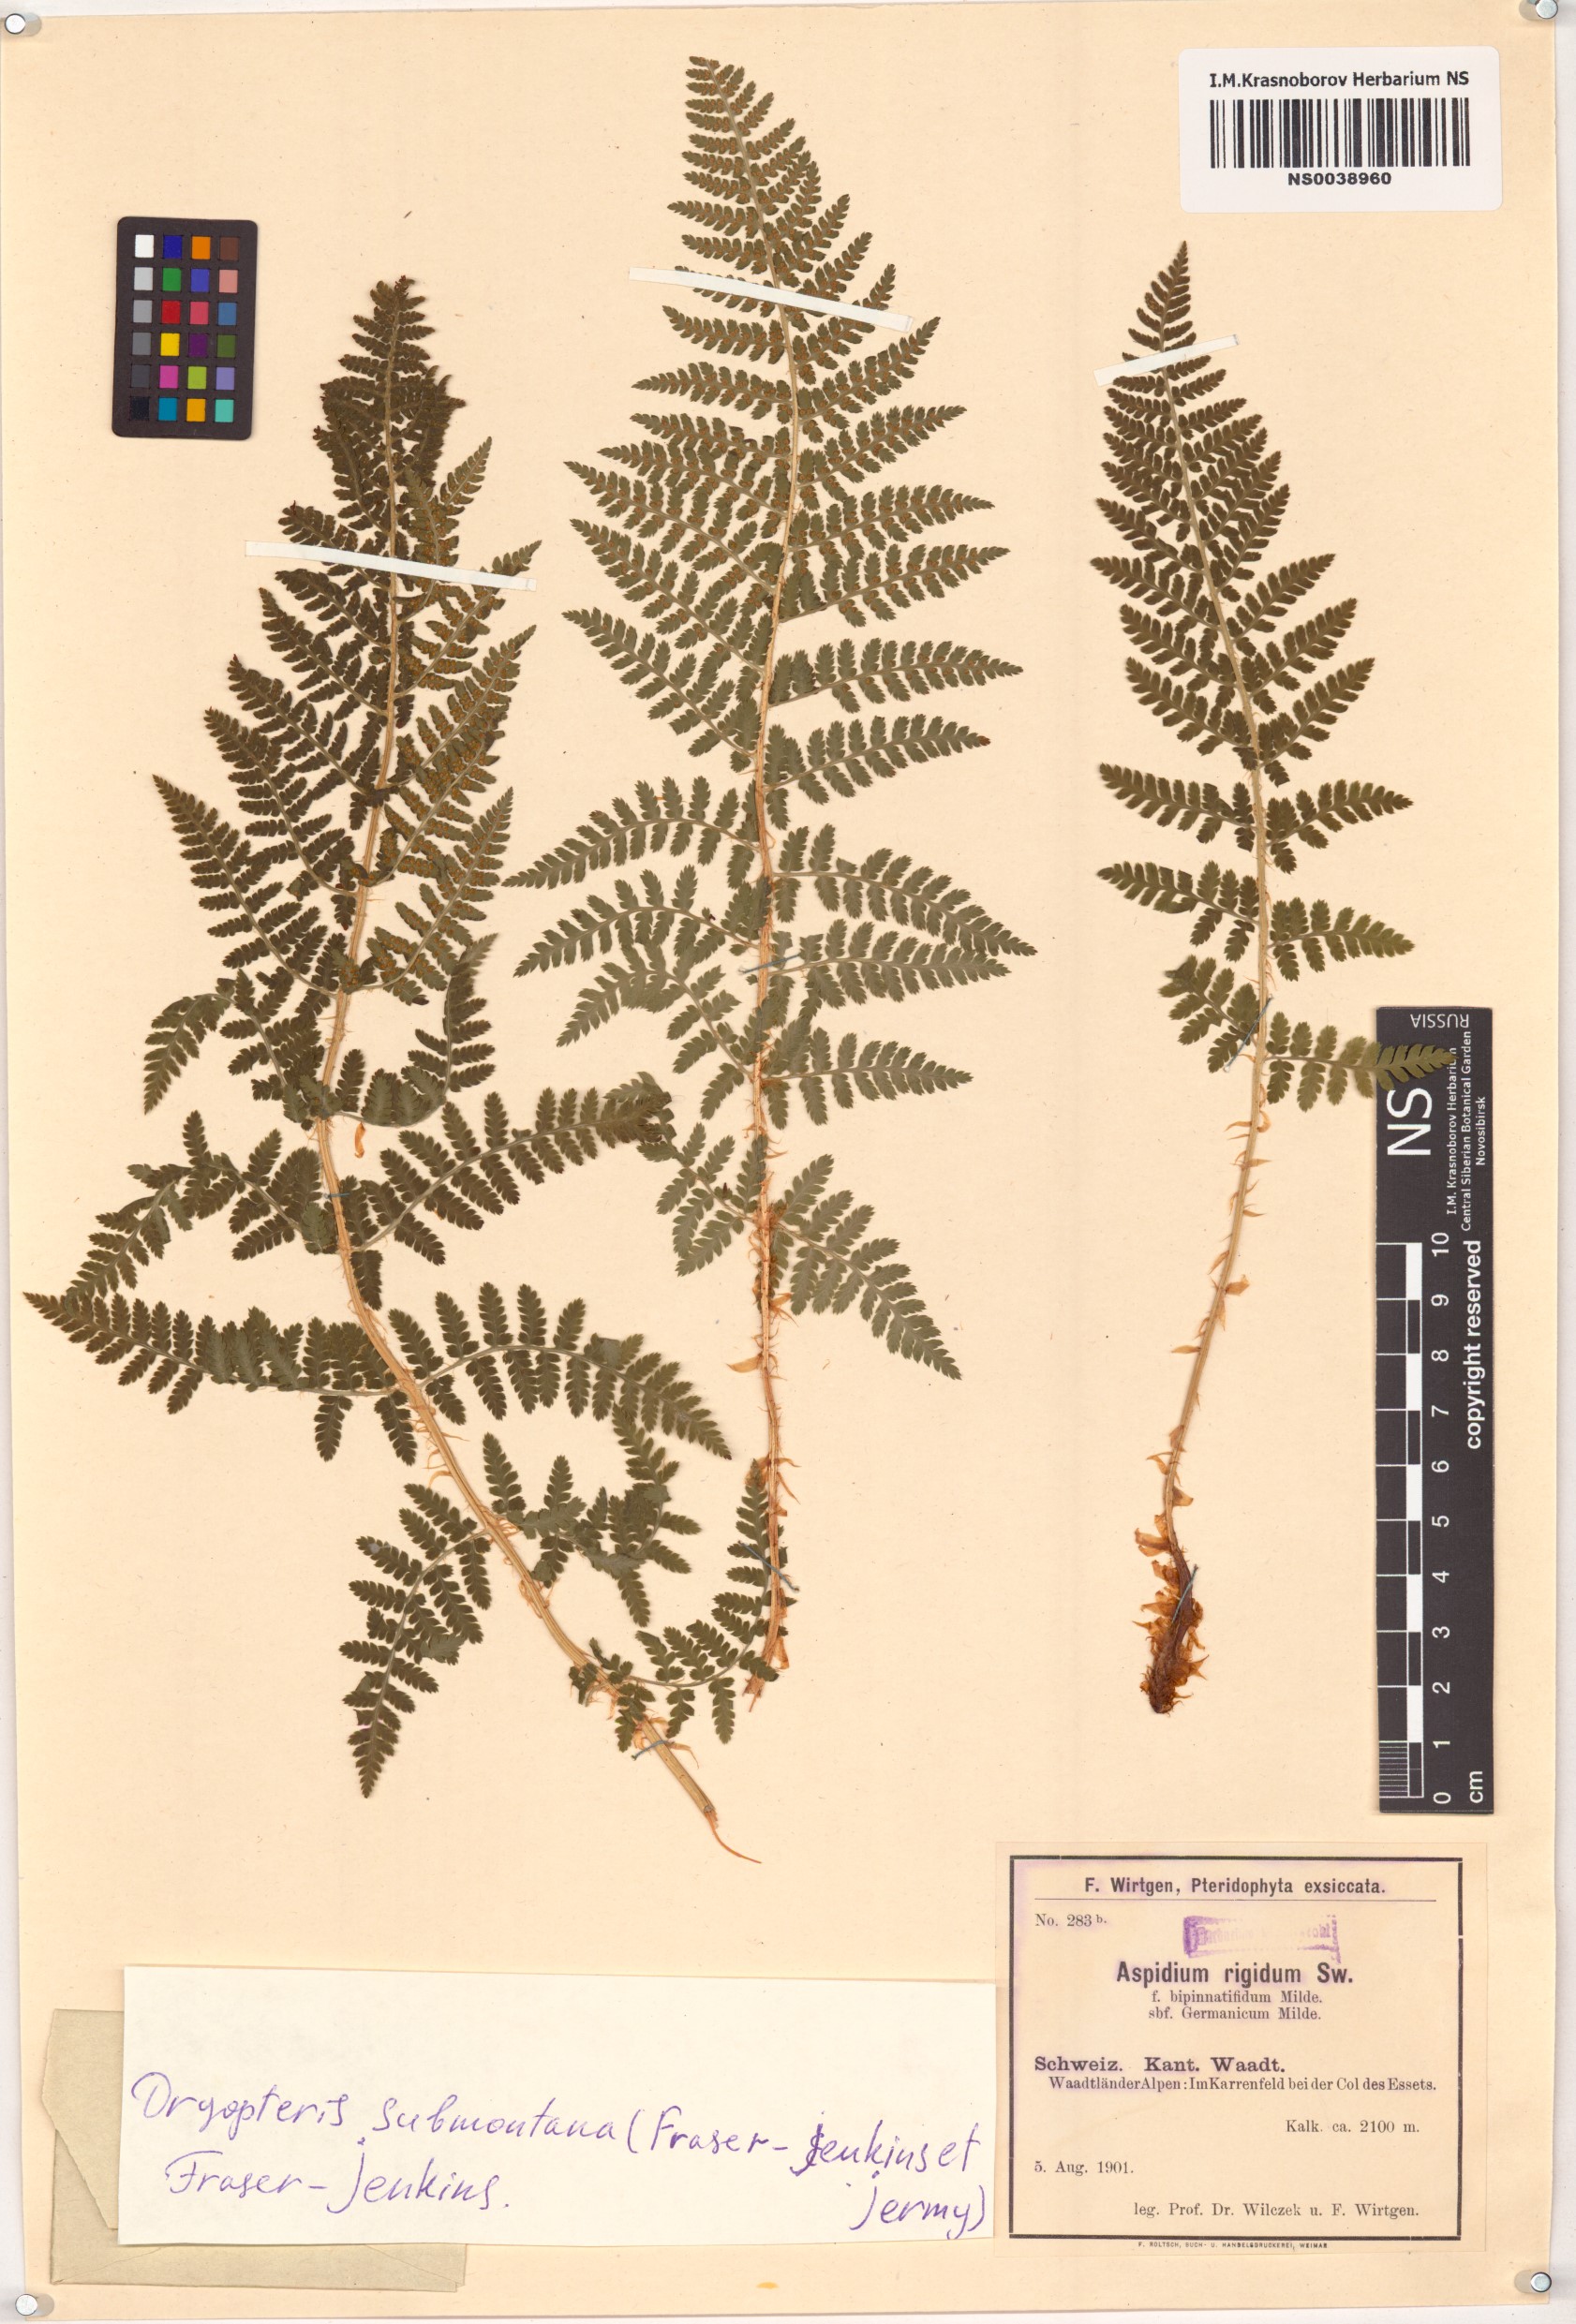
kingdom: Plantae
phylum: Tracheophyta
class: Polypodiopsida
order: Polypodiales
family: Dryopteridaceae
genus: Dryopteris
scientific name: Dryopteris mindshelkensis
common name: Limestone wood fern
